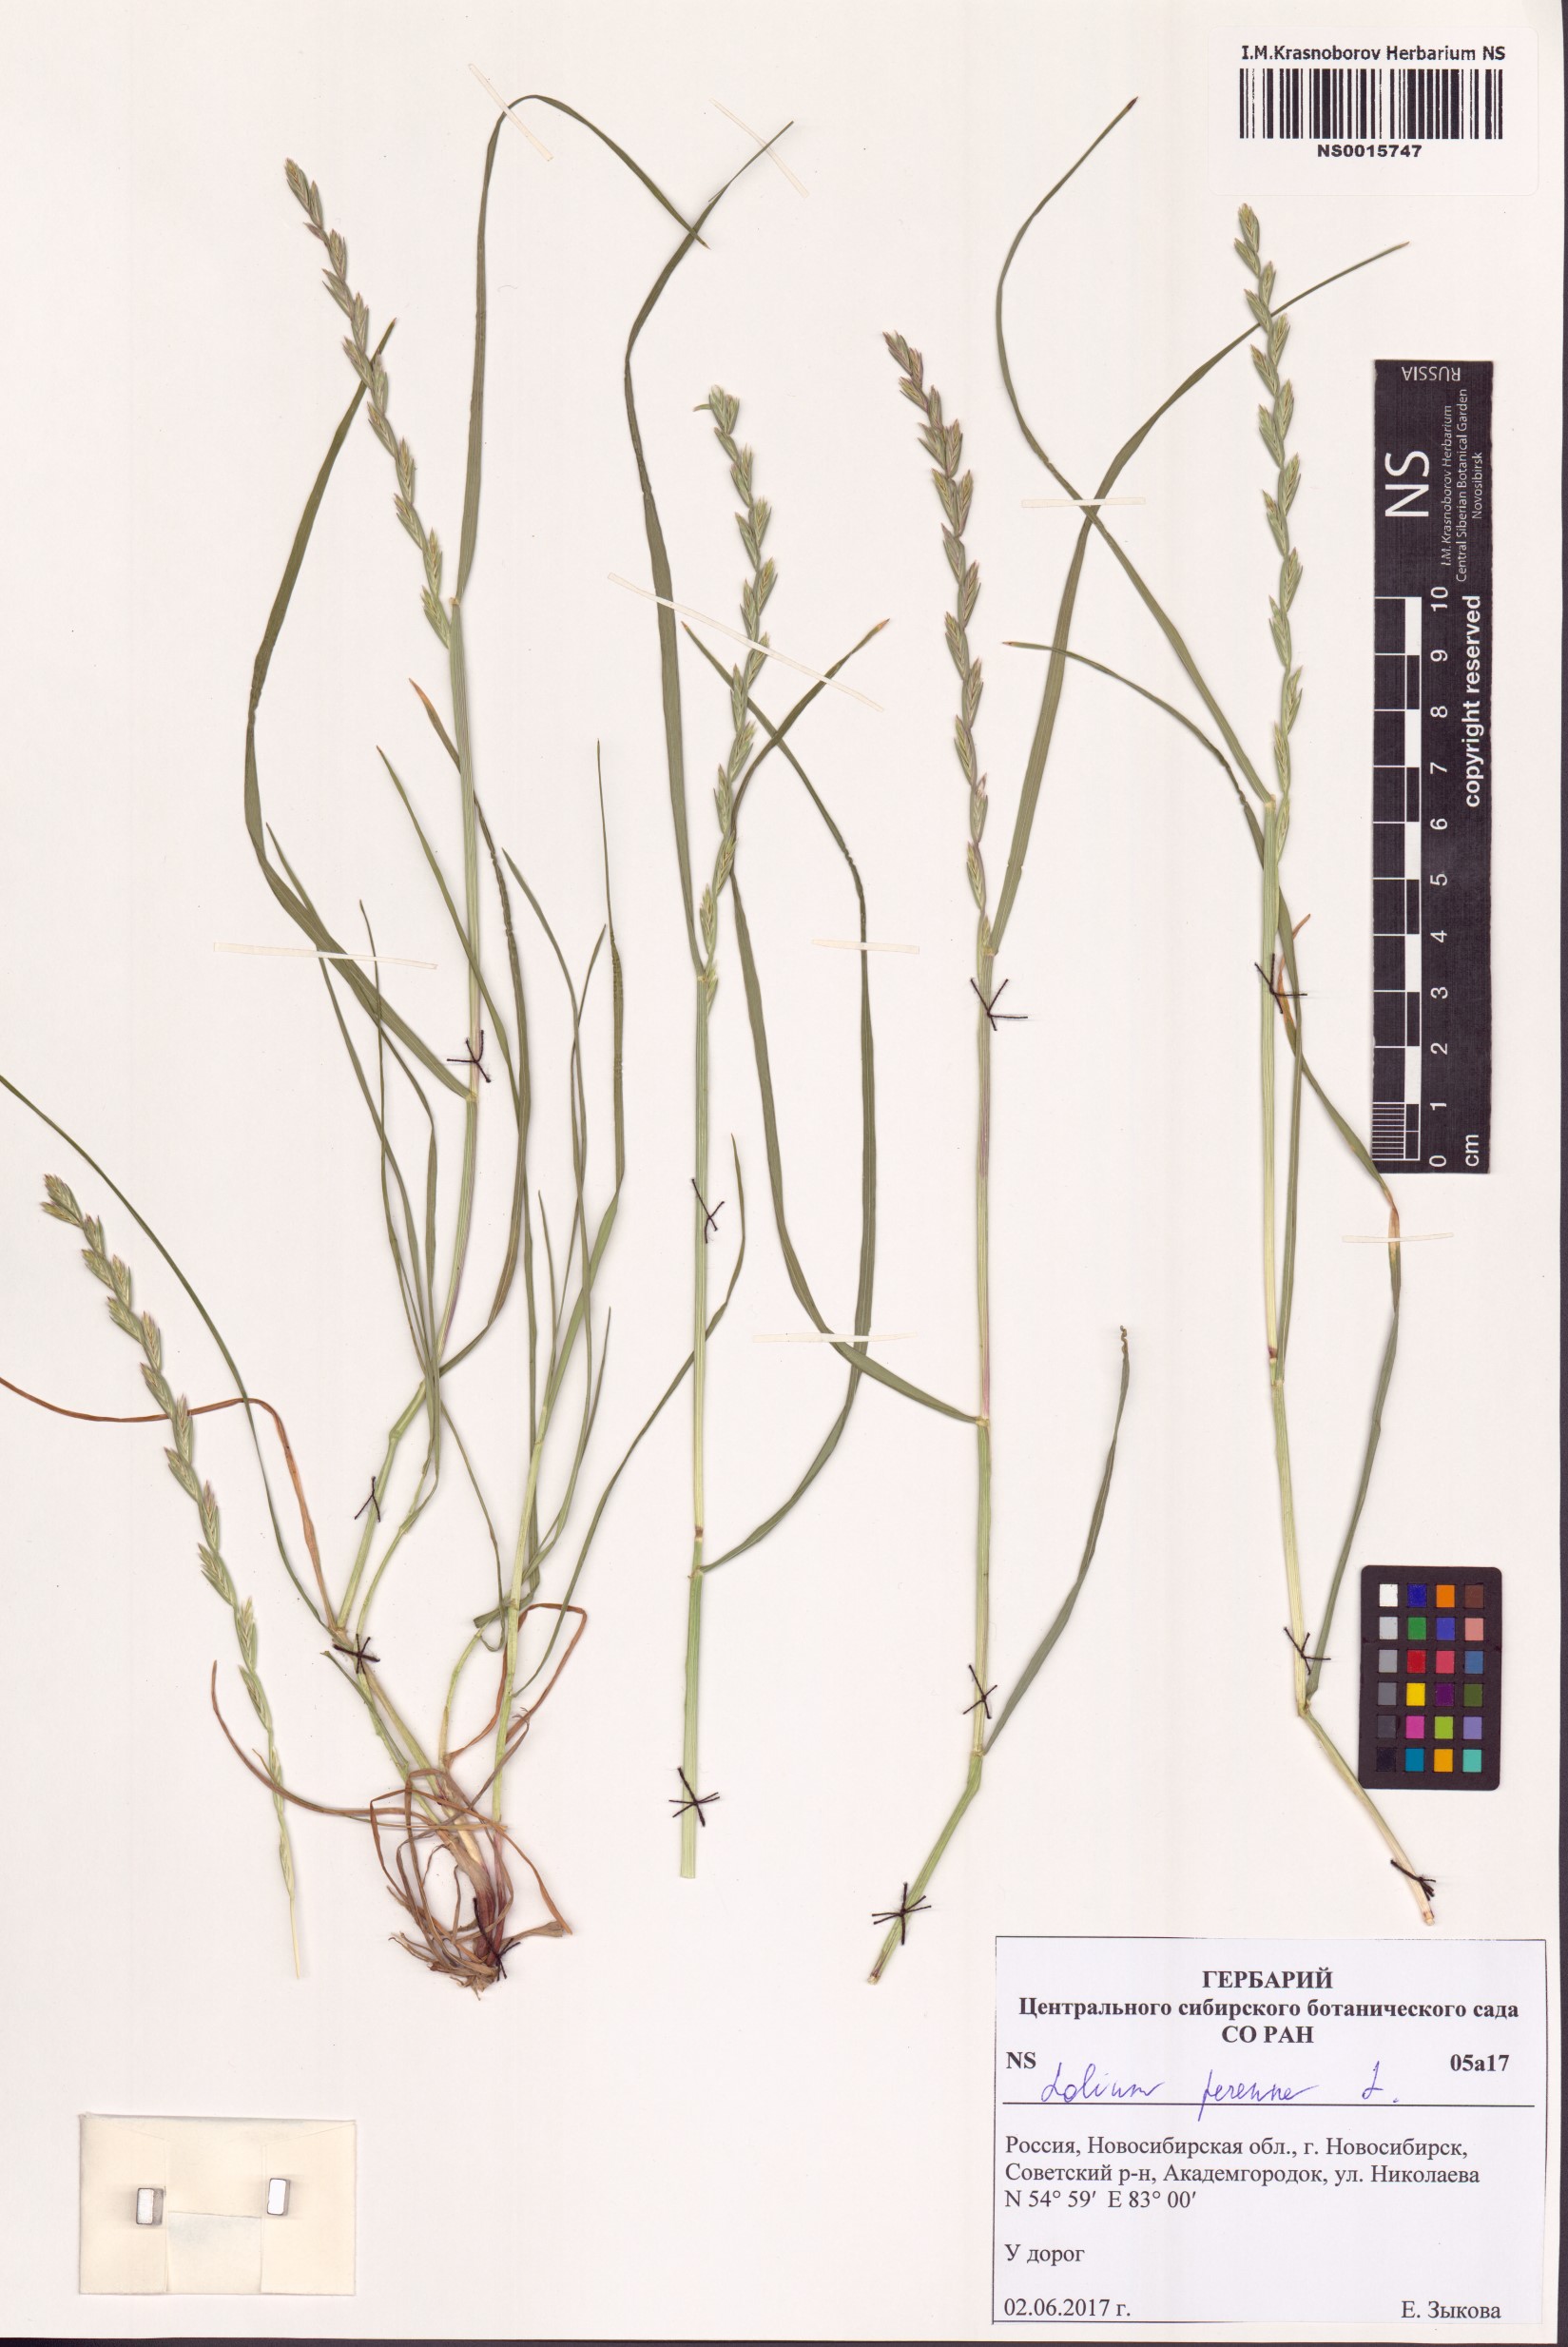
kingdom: Plantae
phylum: Tracheophyta
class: Liliopsida
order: Poales
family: Poaceae
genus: Lolium
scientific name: Lolium perenne
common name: Perennial ryegrass
